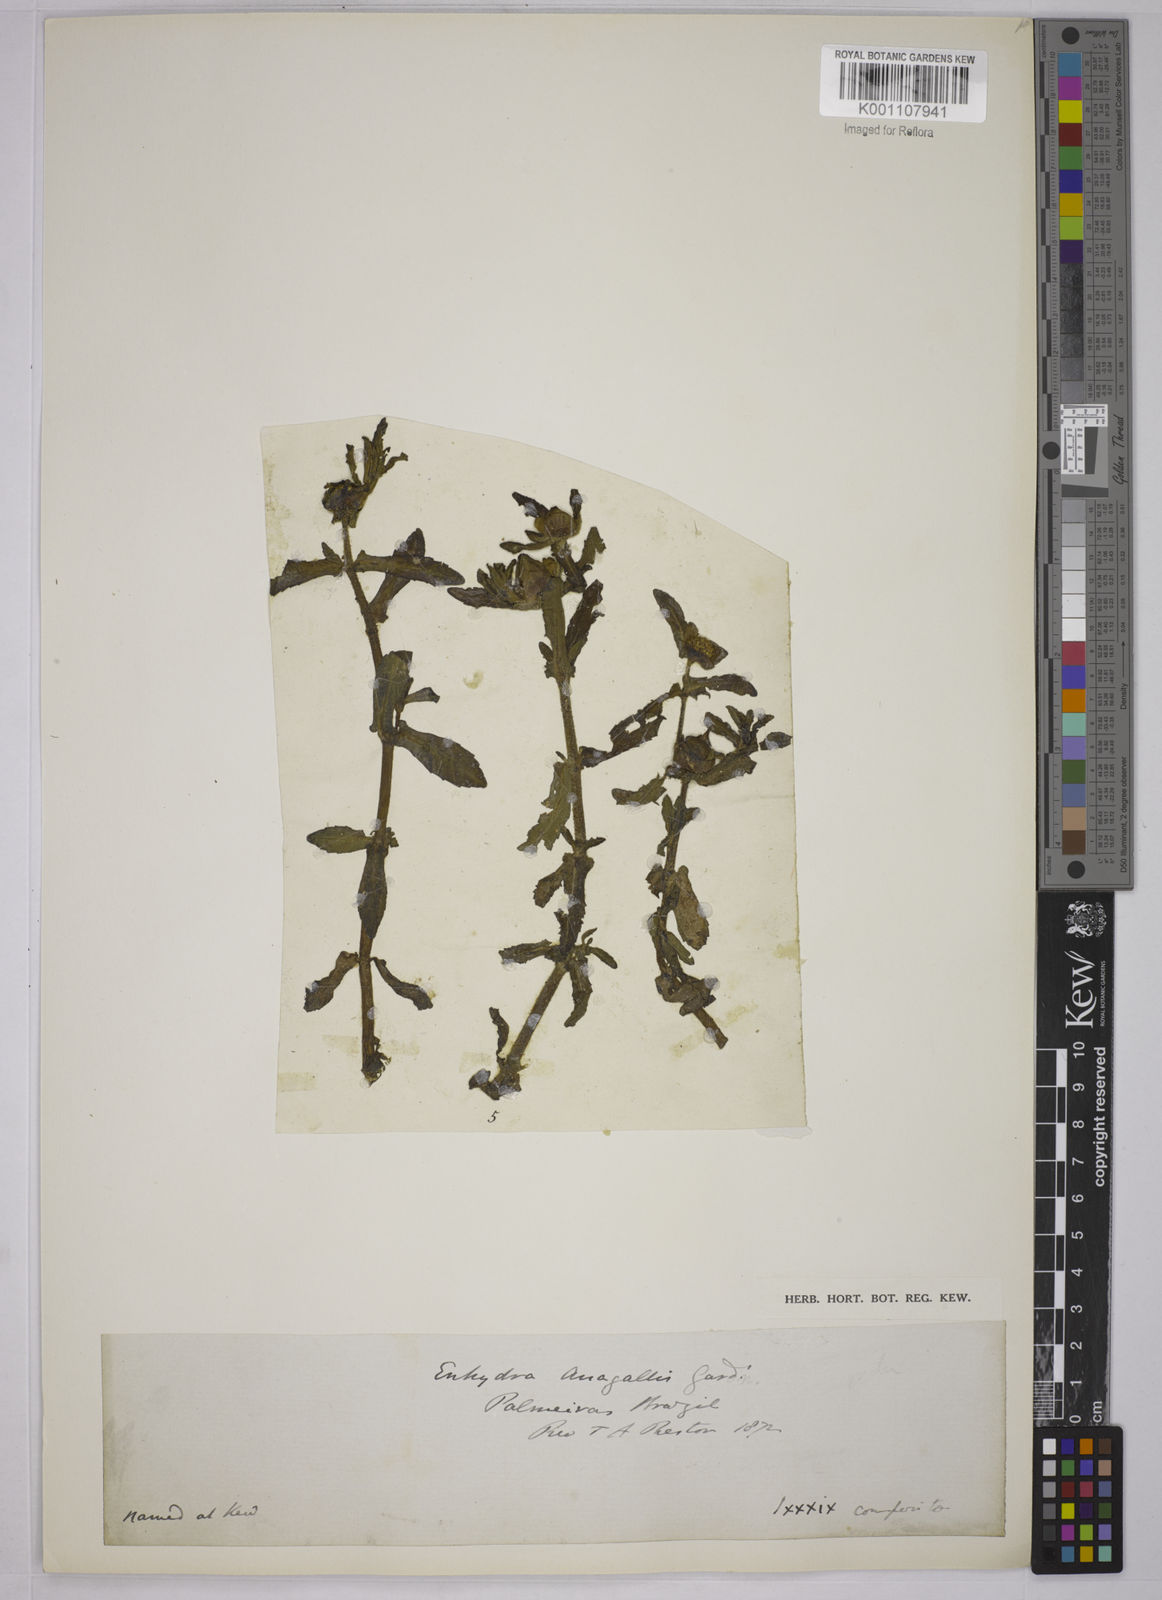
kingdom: Plantae
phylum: Tracheophyta
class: Magnoliopsida
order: Asterales
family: Asteraceae
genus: Enydra
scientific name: Enydra fluctuans
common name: Buffalo spinach
